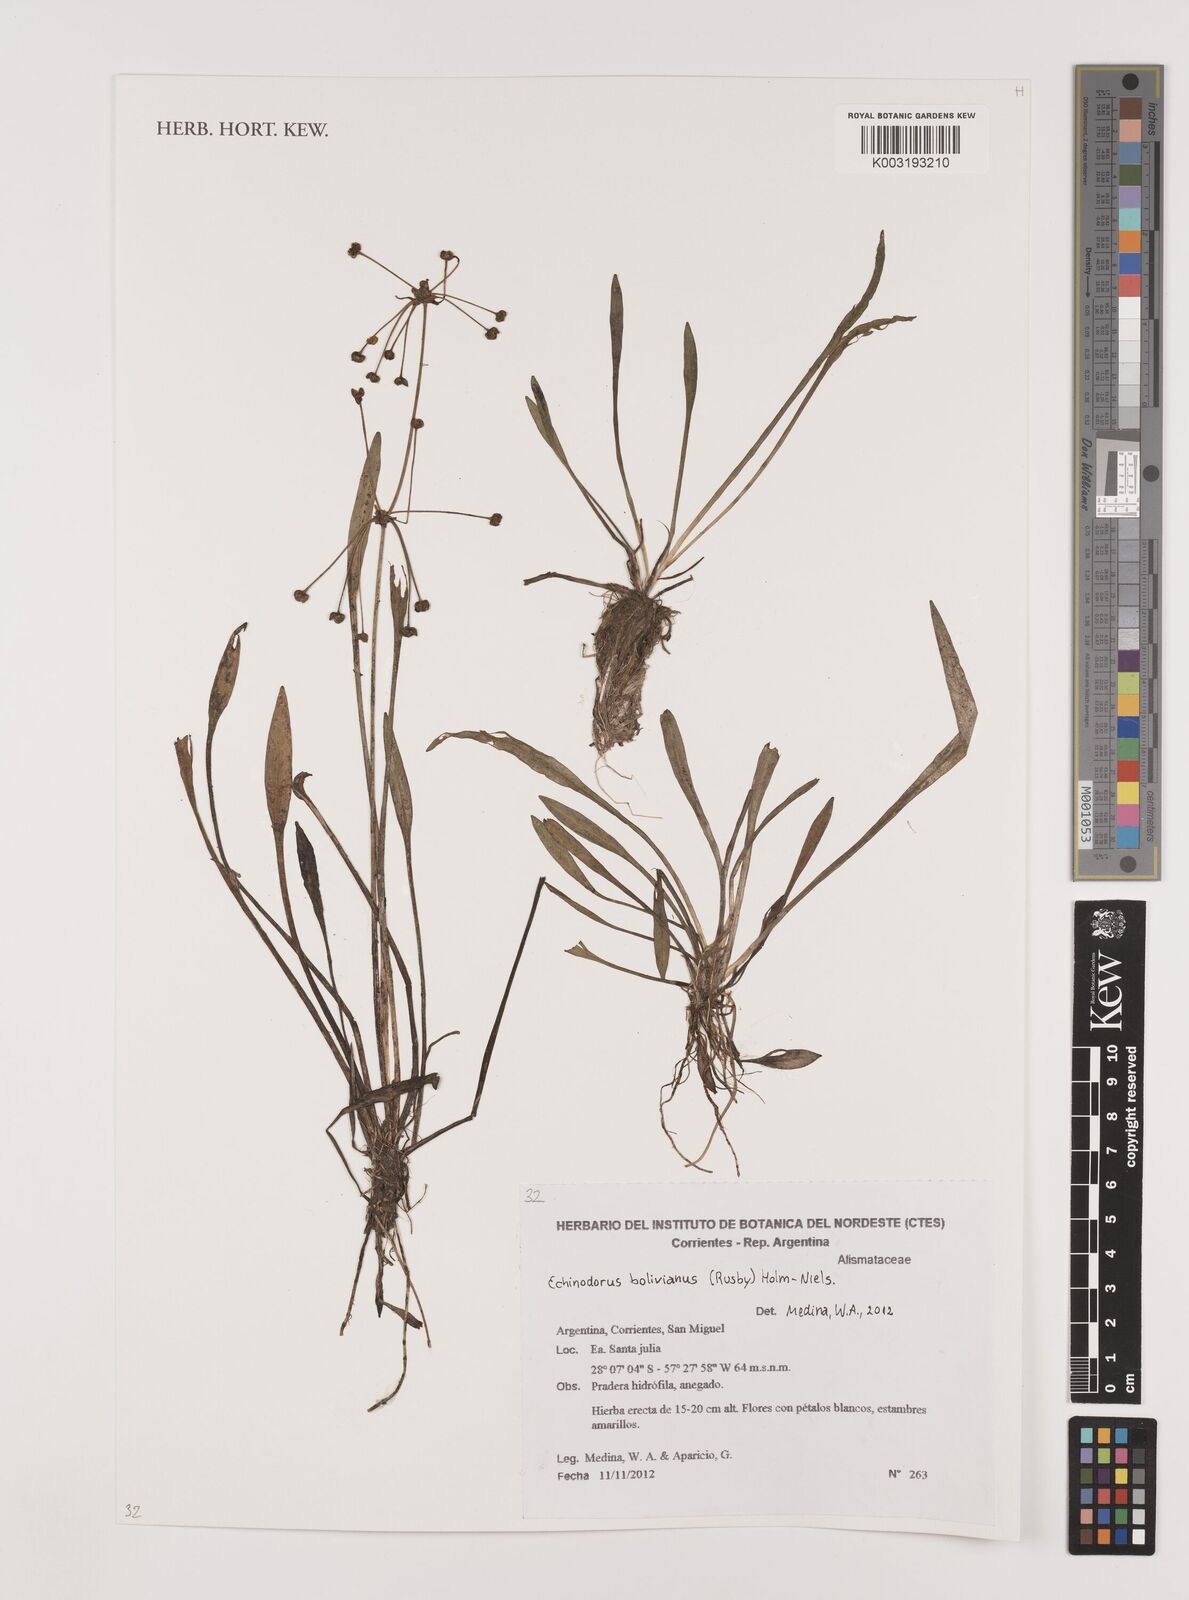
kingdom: Plantae
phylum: Tracheophyta
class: Liliopsida
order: Alismatales
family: Alismataceae
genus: Helanthium
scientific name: Helanthium bolivianum
